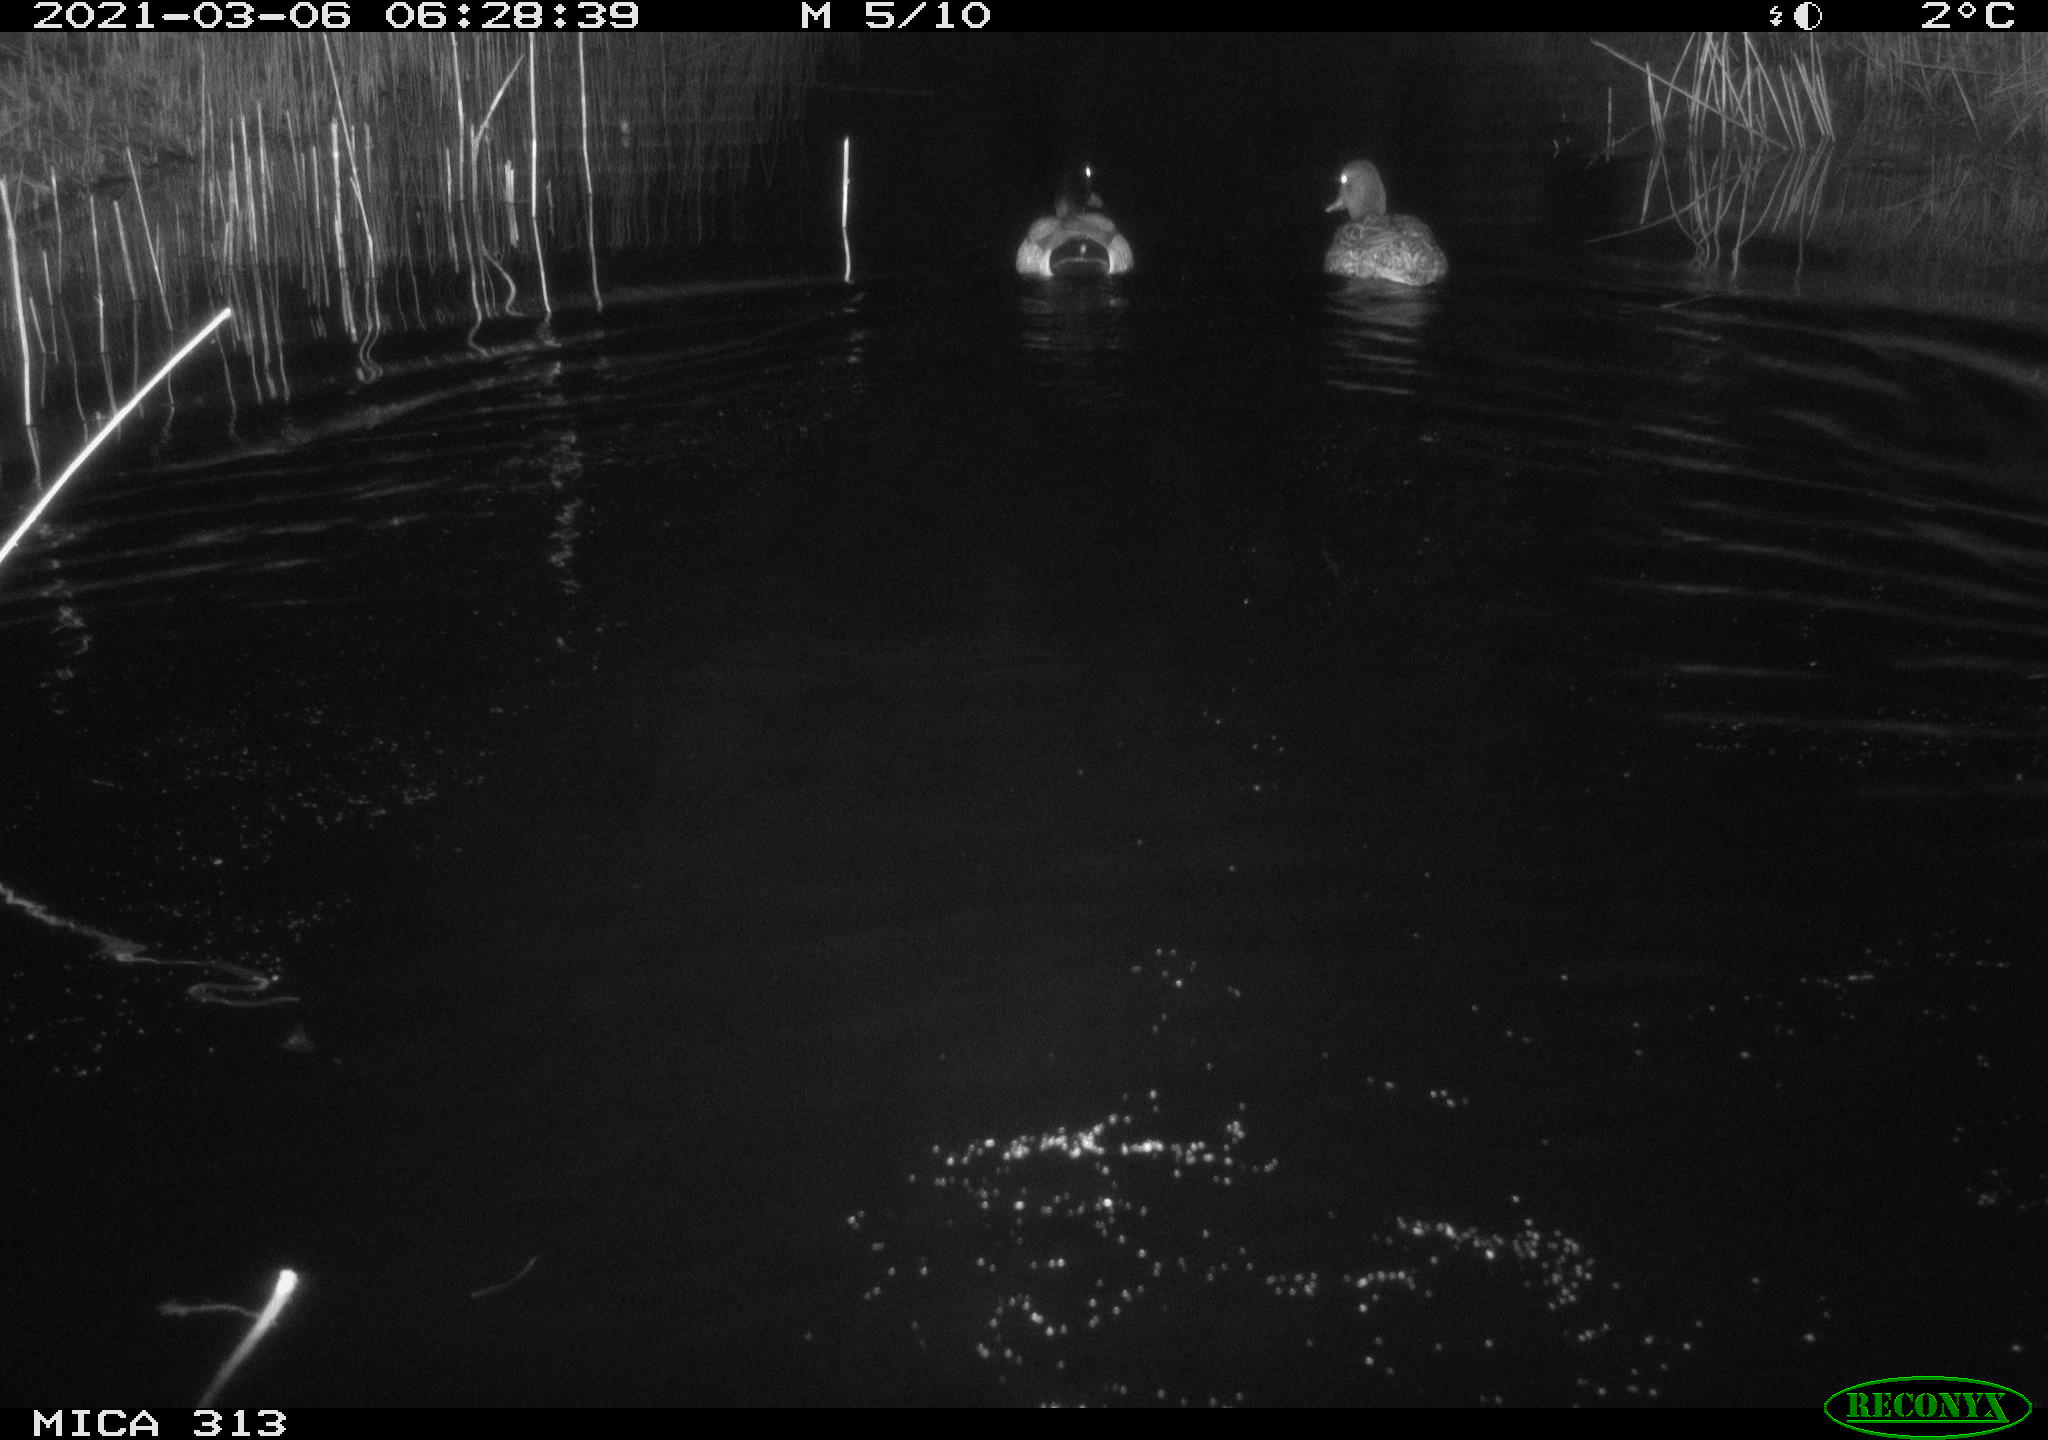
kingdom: Animalia
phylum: Chordata
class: Aves
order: Anseriformes
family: Anatidae
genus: Mareca
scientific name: Mareca strepera
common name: Gadwall
